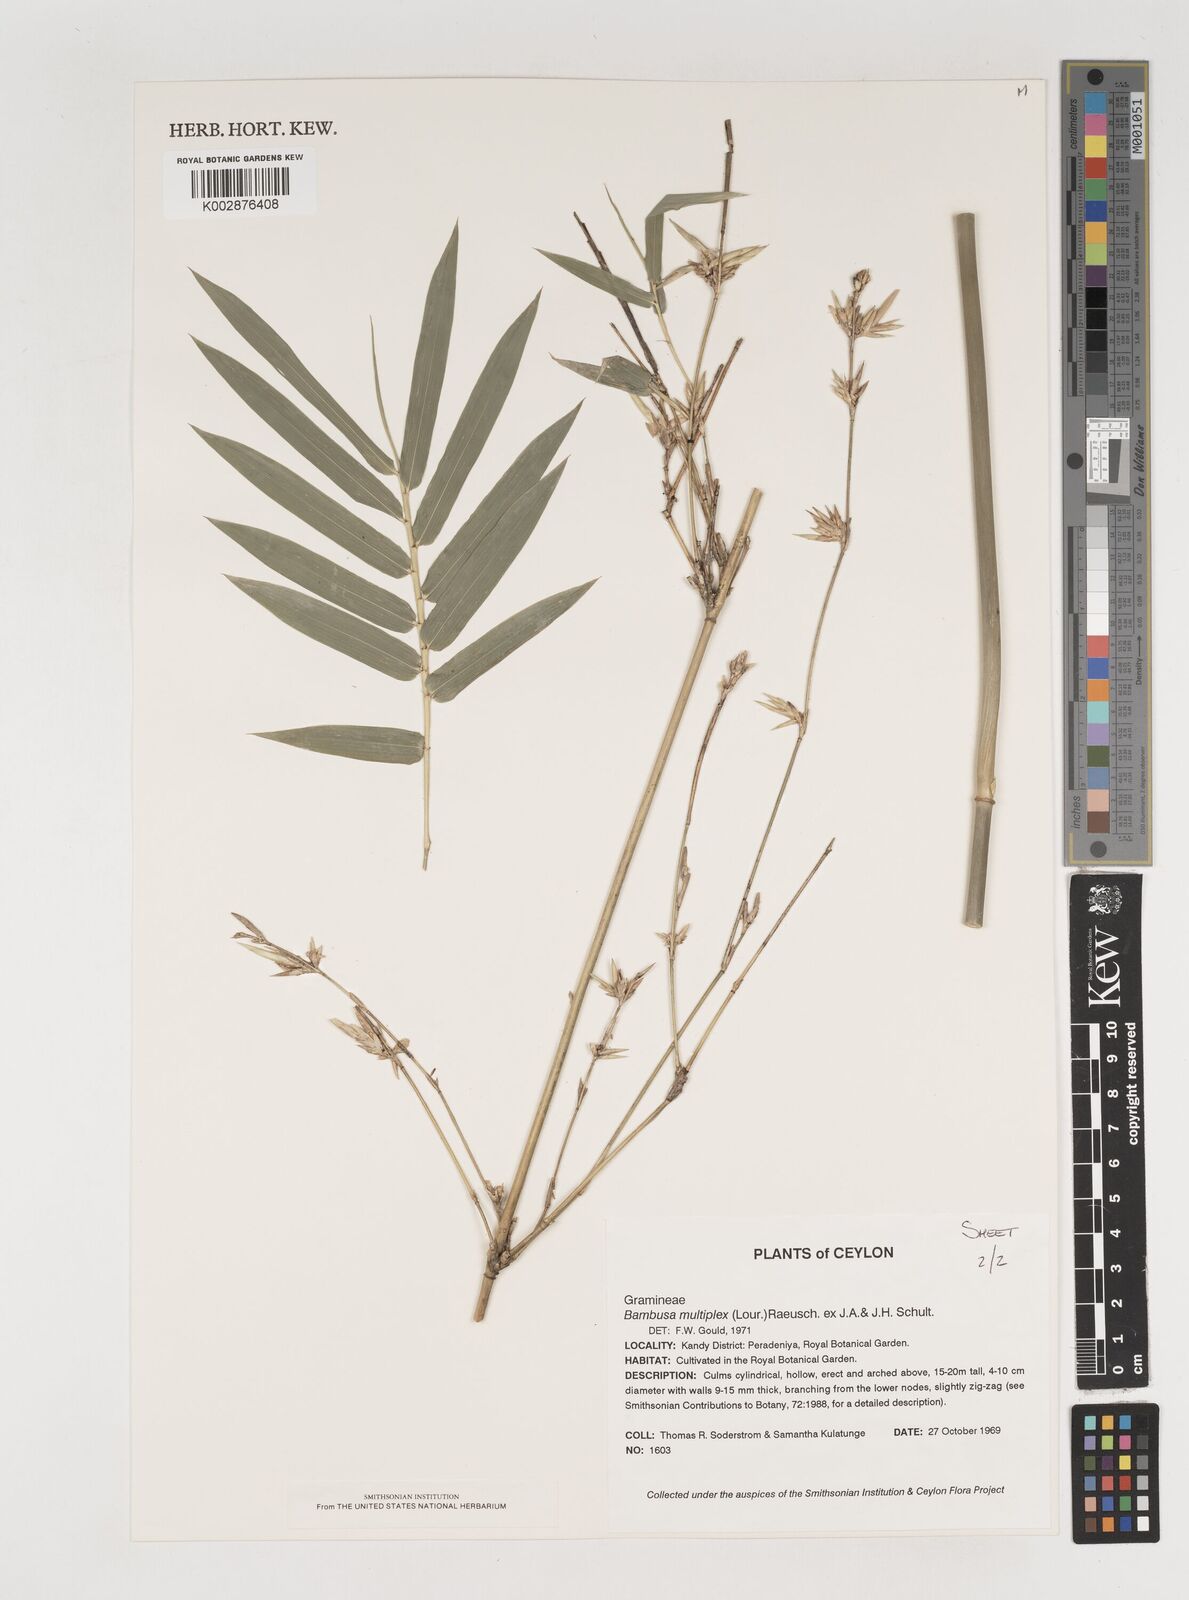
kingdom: Plantae
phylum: Tracheophyta
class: Liliopsida
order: Poales
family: Poaceae
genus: Bambusa
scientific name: Bambusa multiplex
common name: Hedge bamboo
